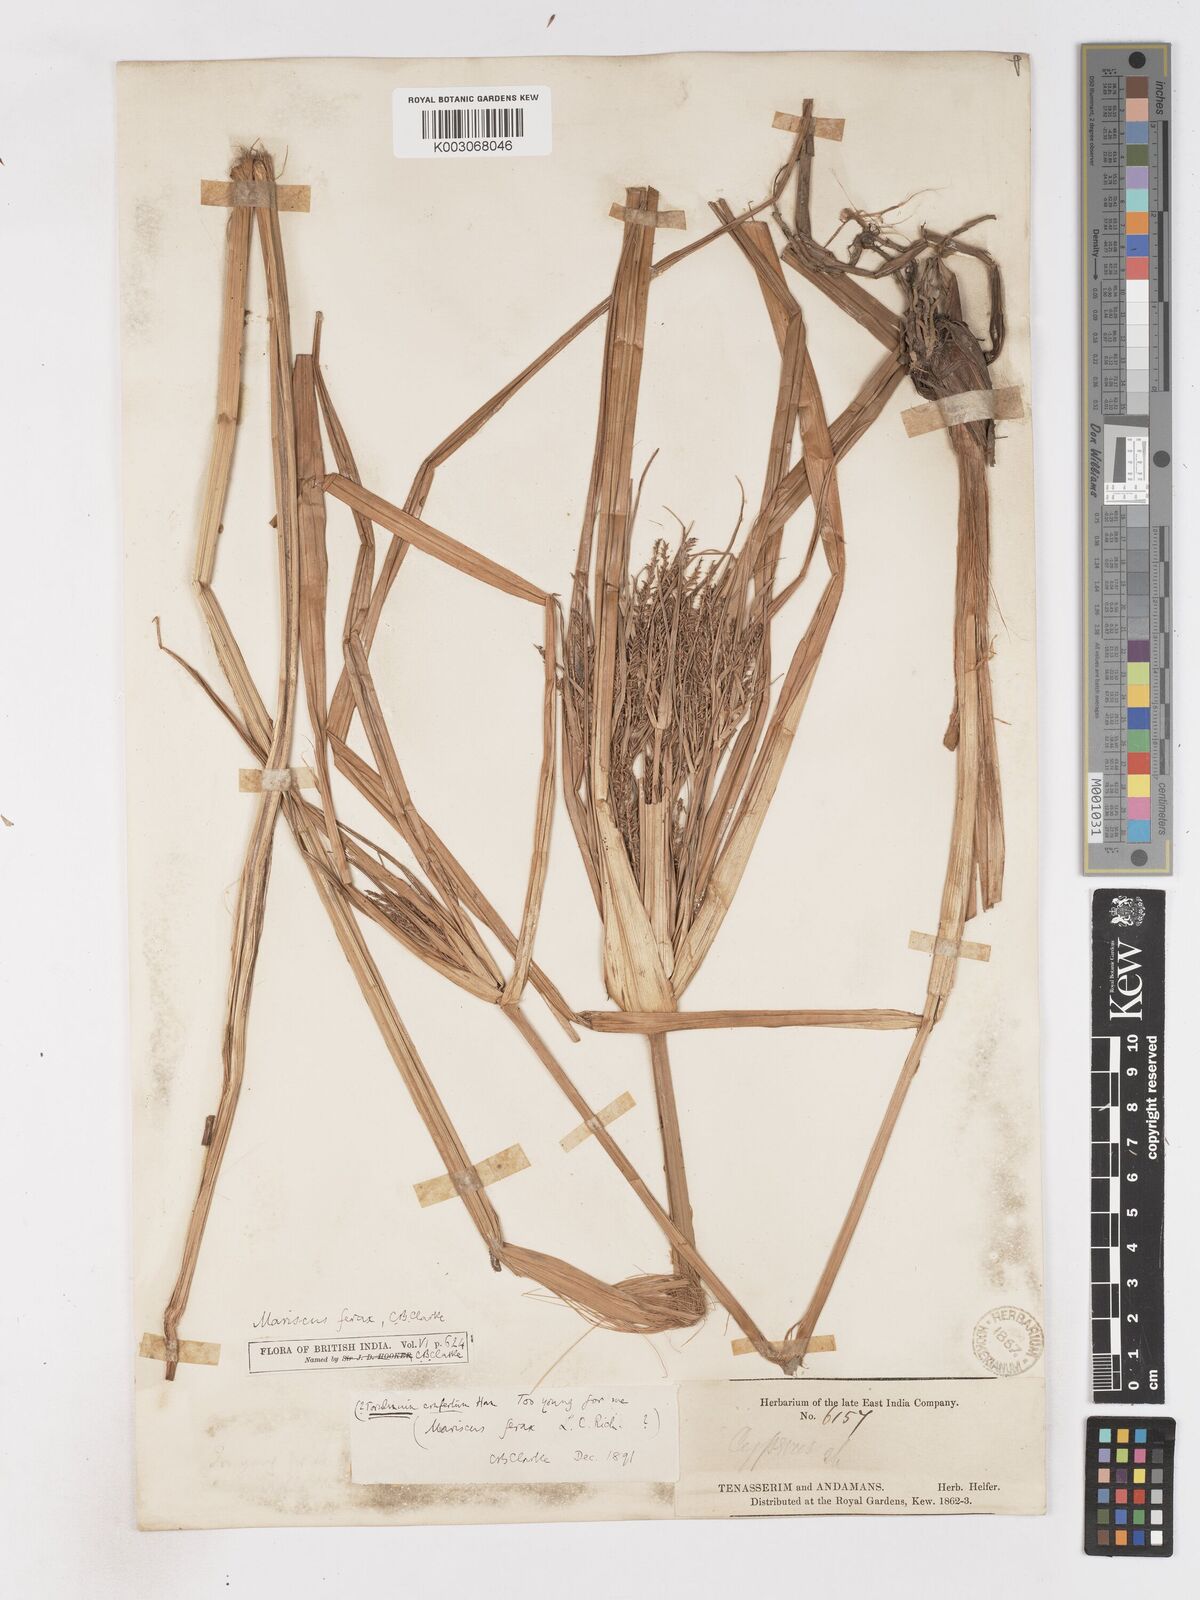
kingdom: Plantae
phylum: Tracheophyta
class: Liliopsida
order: Poales
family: Cyperaceae
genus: Cyperus
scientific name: Cyperus odoratus
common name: Fragrant flatsedge
